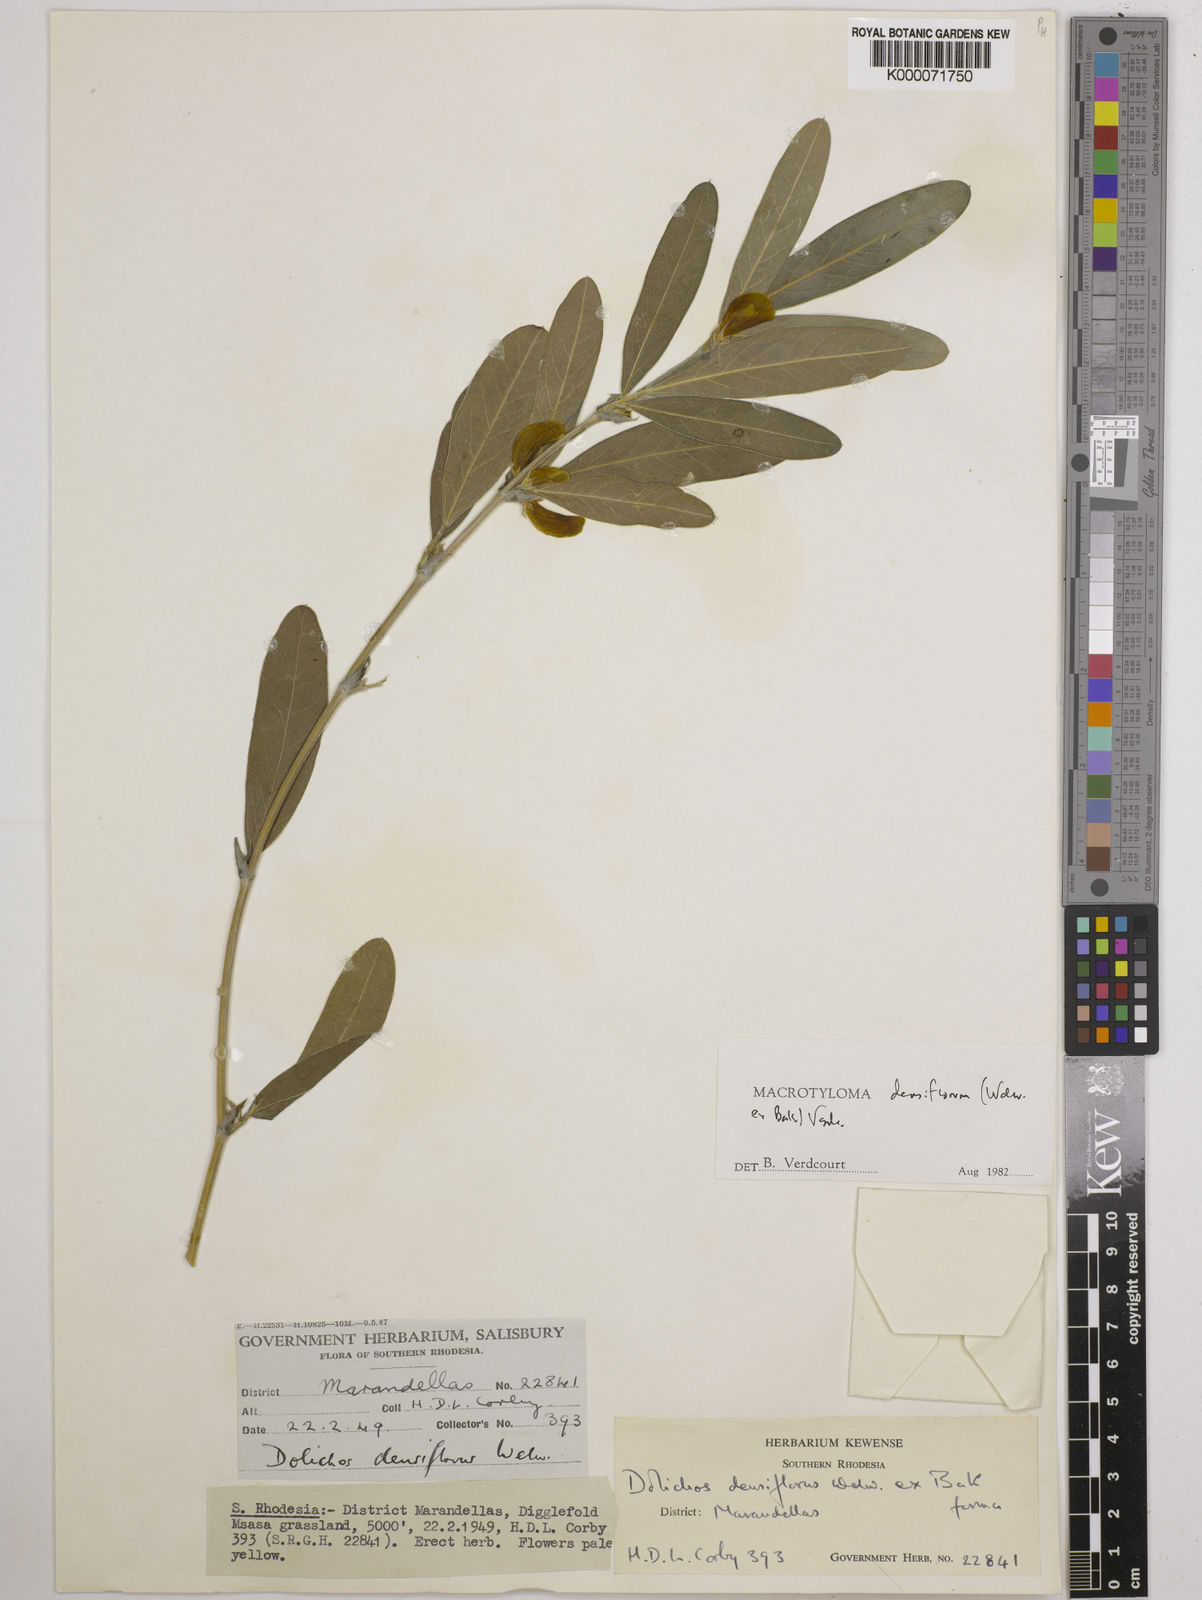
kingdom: Plantae
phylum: Tracheophyta
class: Magnoliopsida
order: Fabales
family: Fabaceae
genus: Macrotyloma
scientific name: Macrotyloma densiflorum
